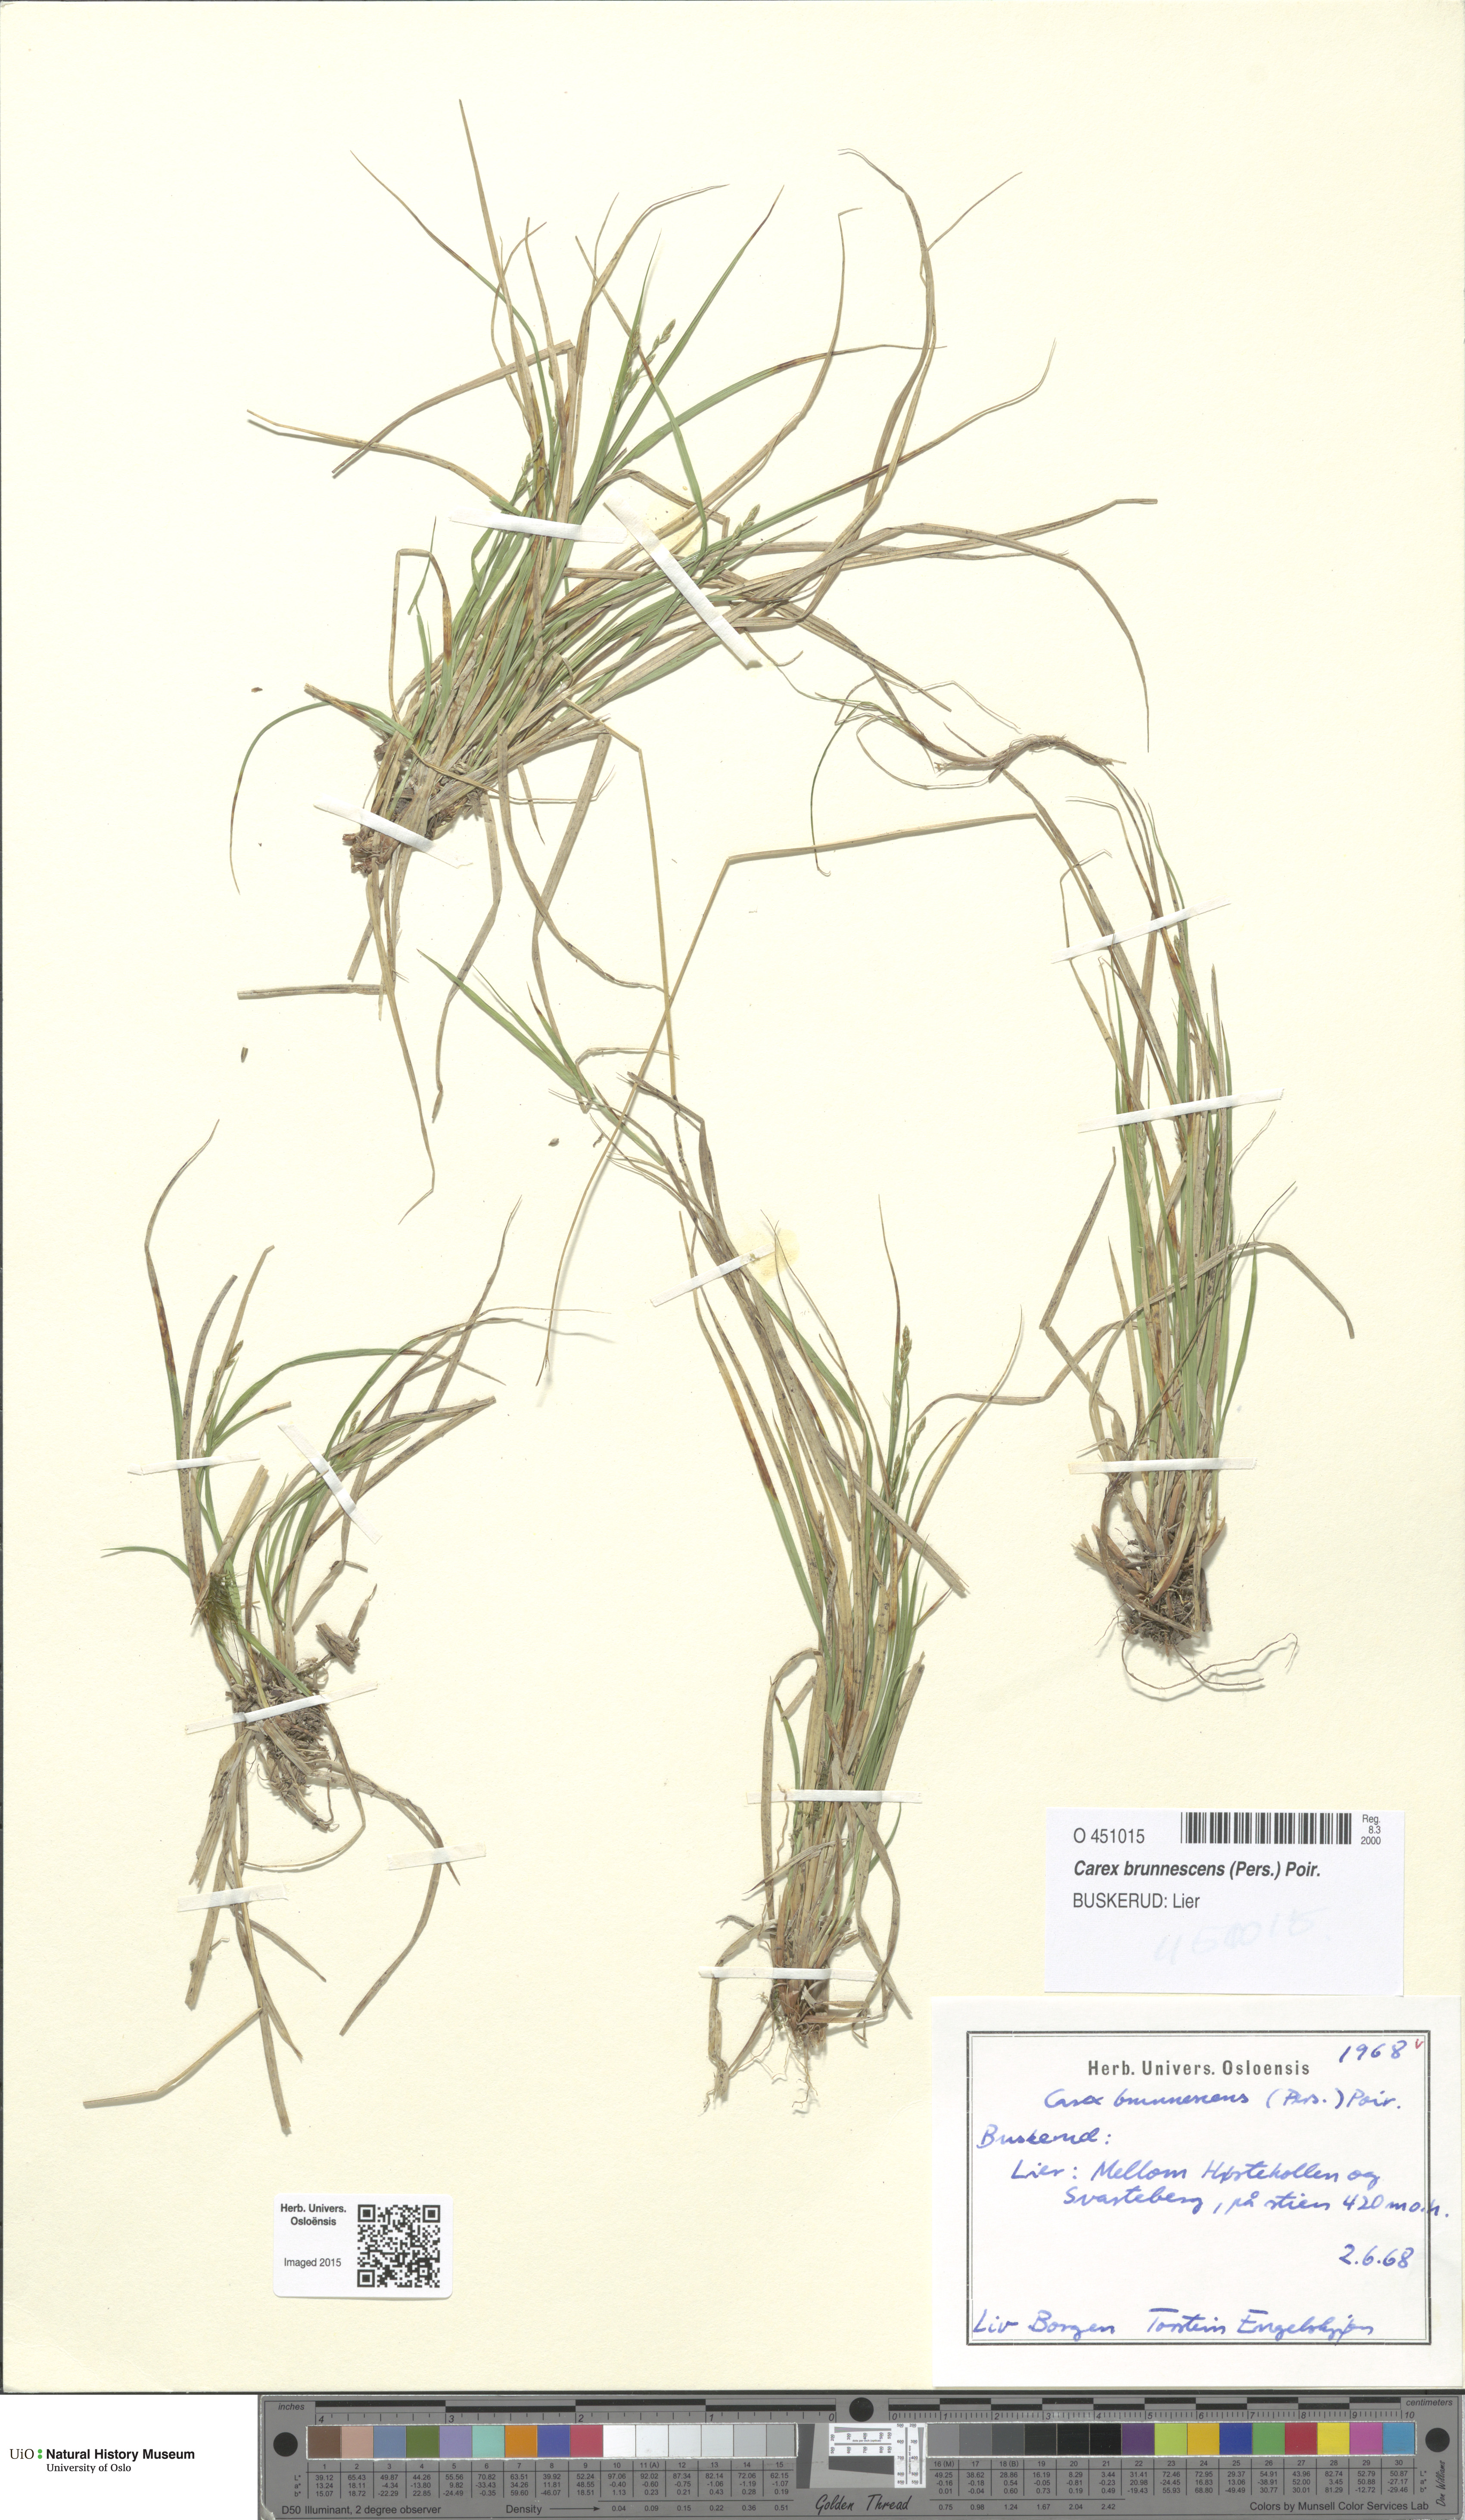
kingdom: Plantae
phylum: Tracheophyta
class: Liliopsida
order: Poales
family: Cyperaceae
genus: Carex
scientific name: Carex brunnescens
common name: Brown sedge
